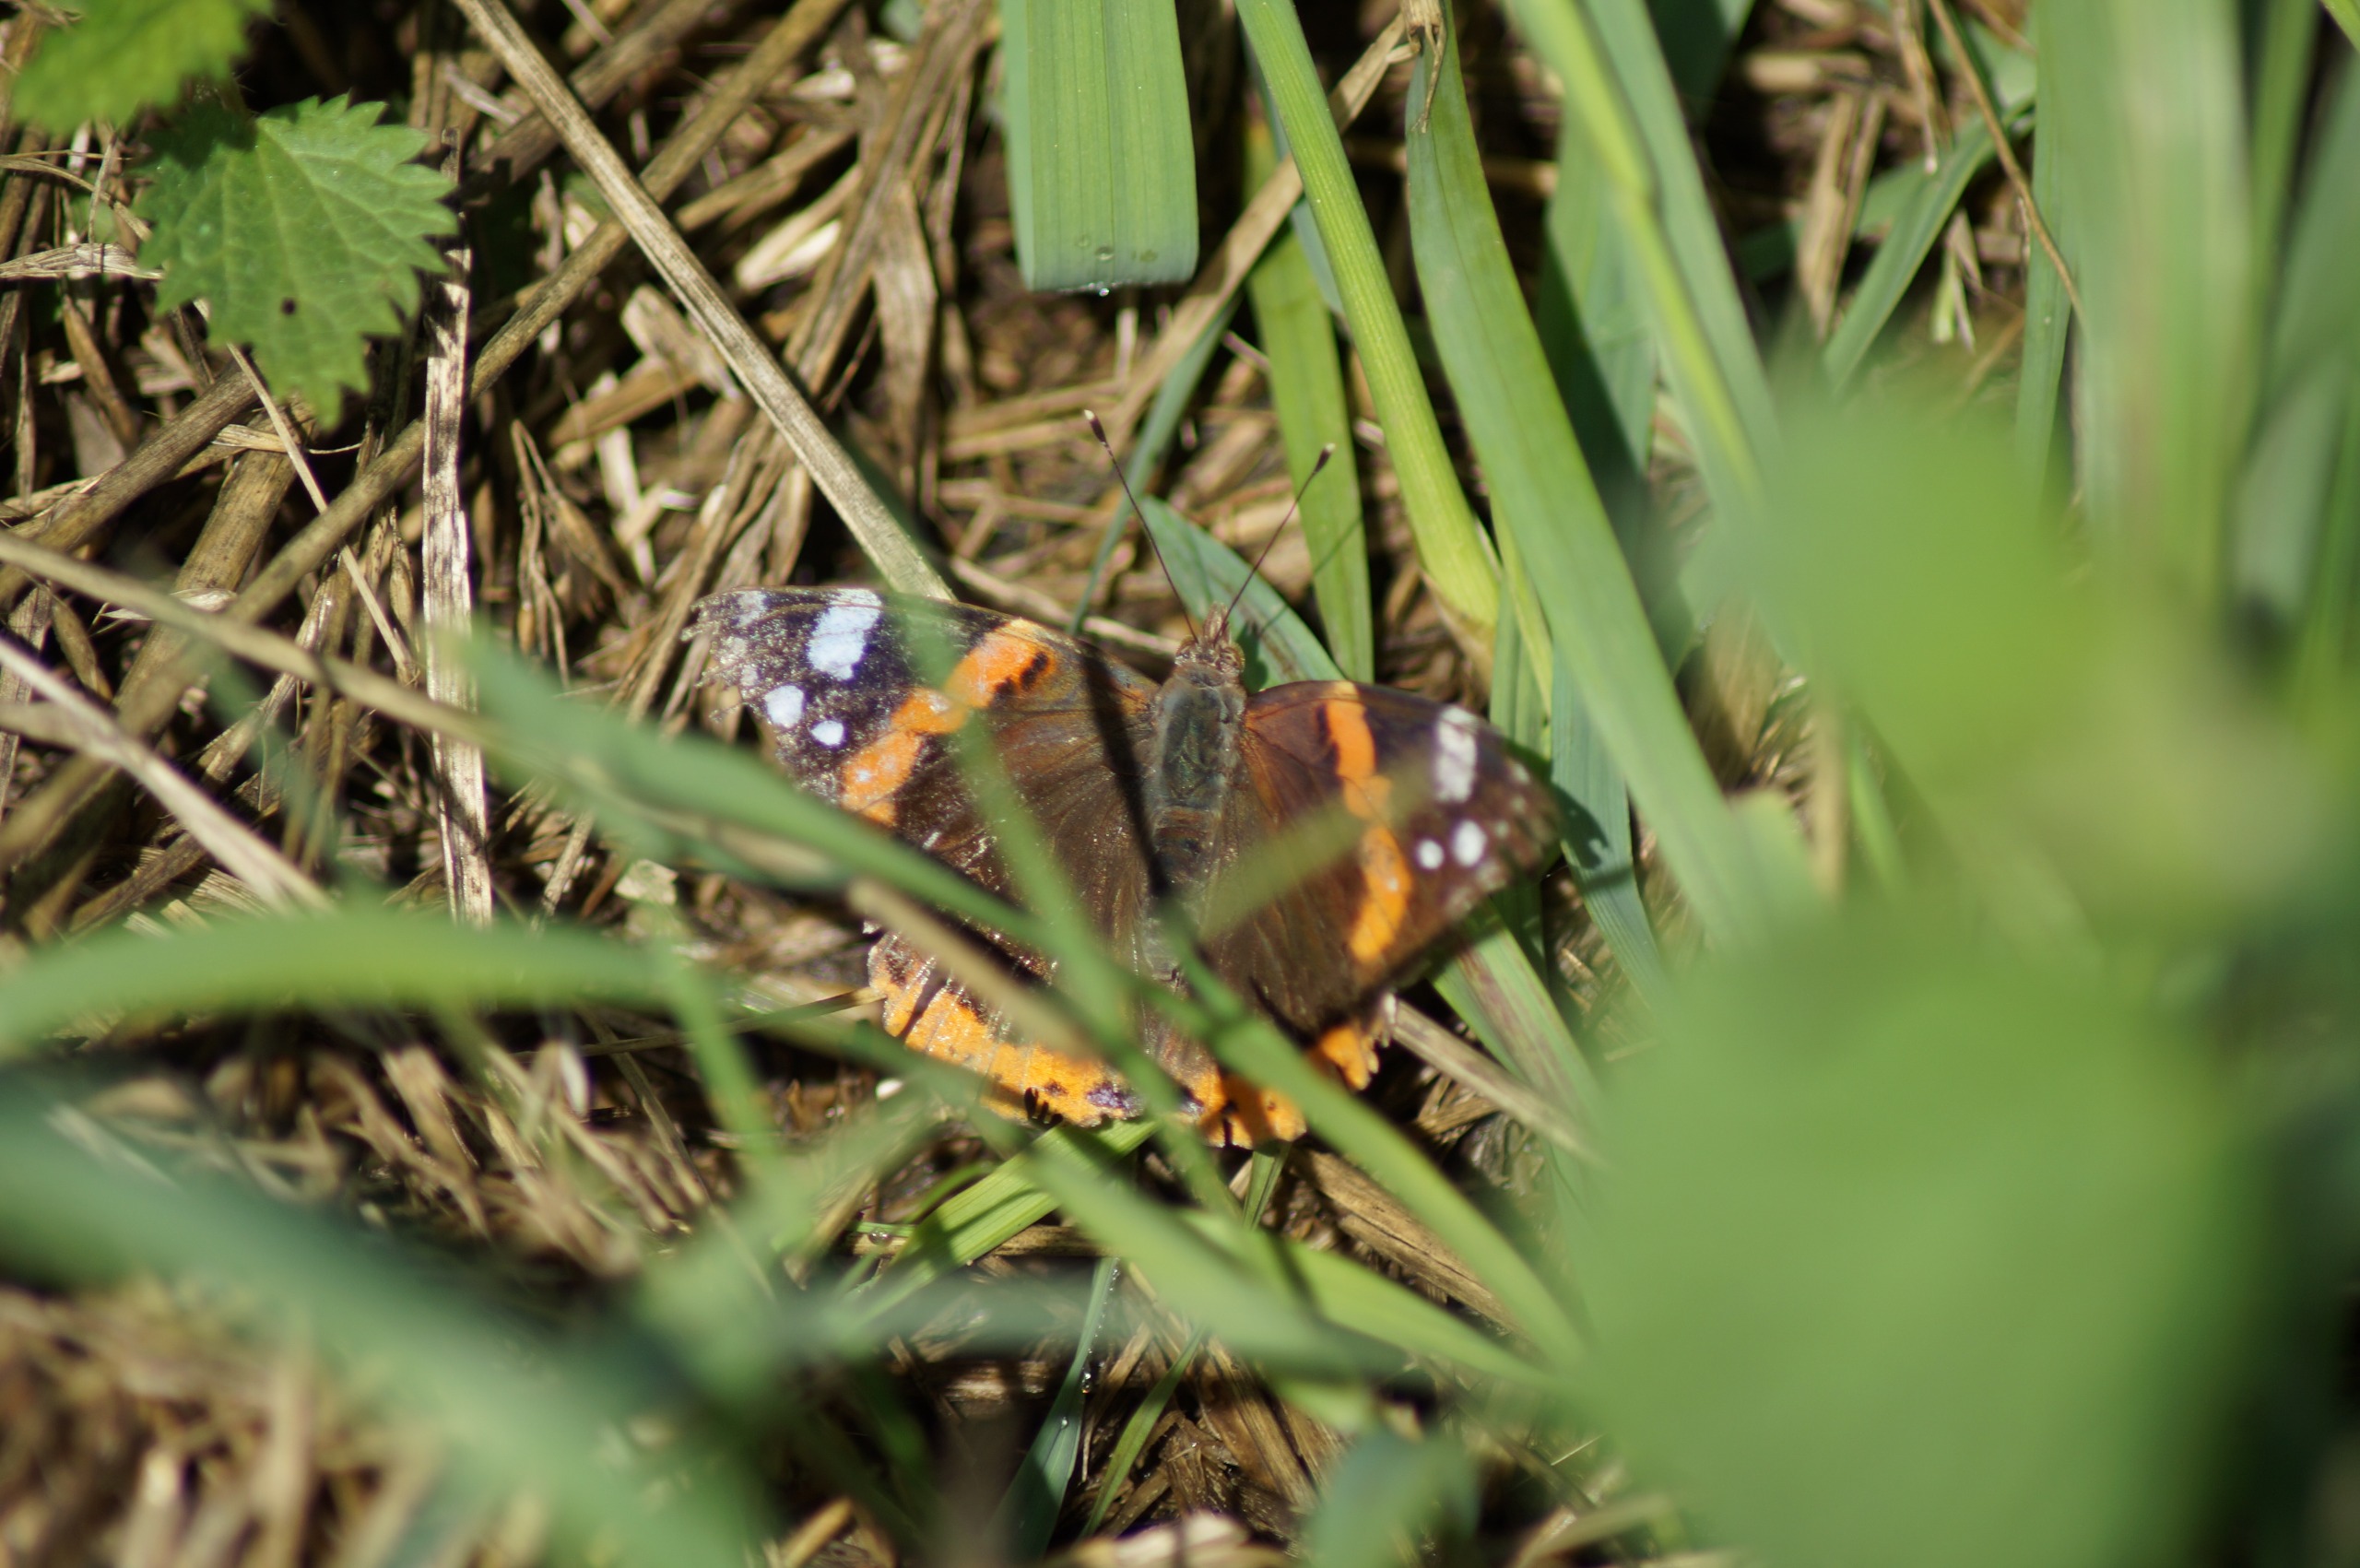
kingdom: Animalia
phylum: Arthropoda
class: Insecta
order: Lepidoptera
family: Nymphalidae
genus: Vanessa
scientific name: Vanessa atalanta
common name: Admiral
